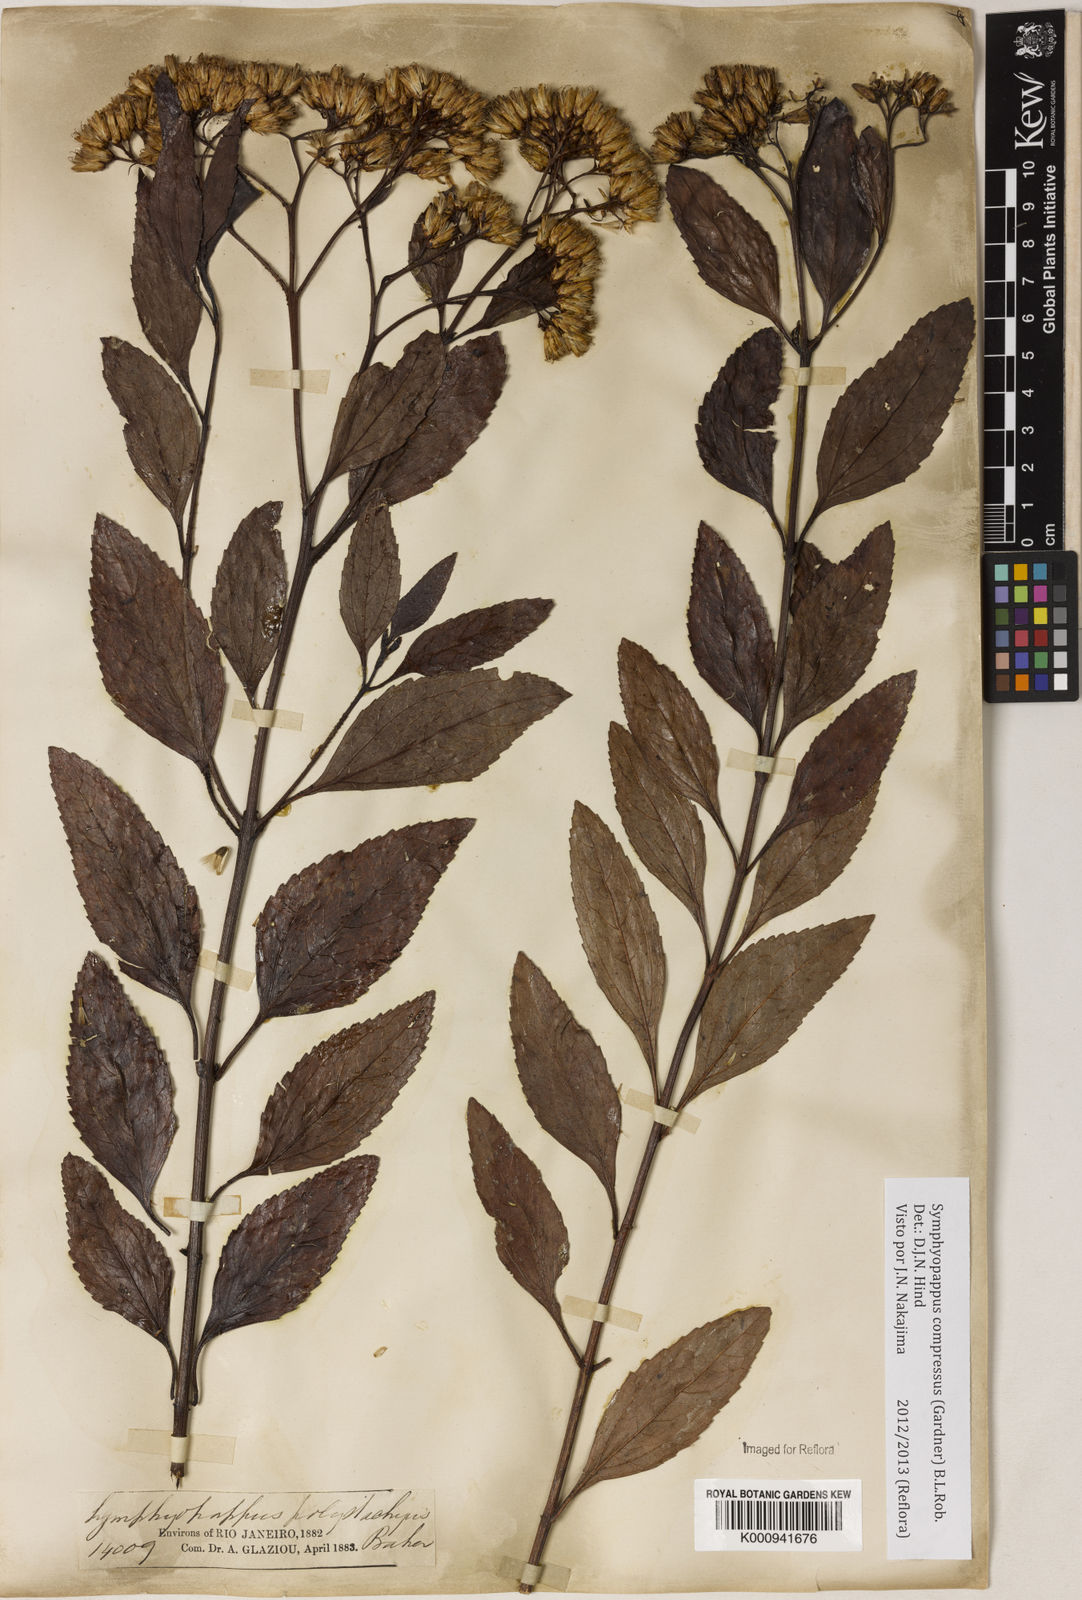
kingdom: Plantae
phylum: Tracheophyta
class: Magnoliopsida
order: Asterales
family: Asteraceae
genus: Symphyopappus
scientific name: Symphyopappus compressus
